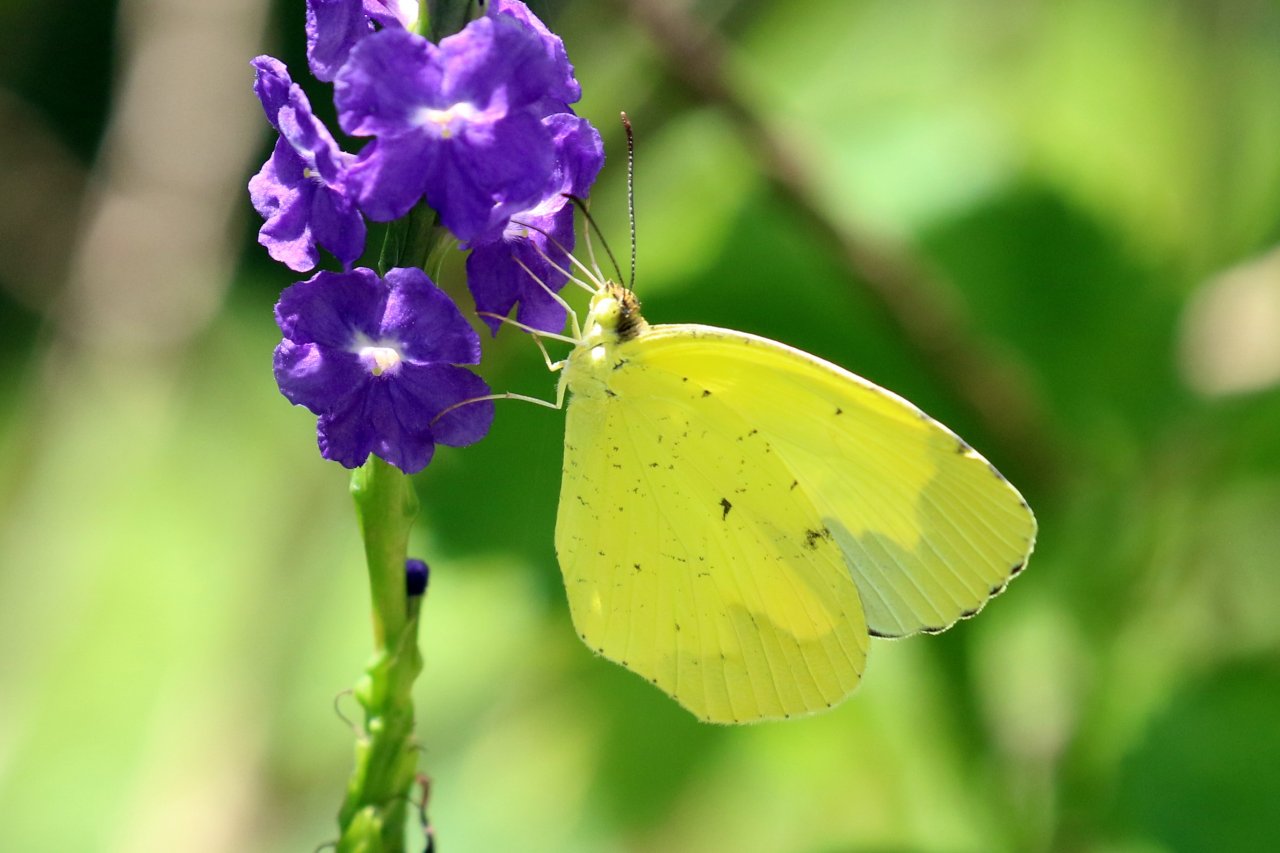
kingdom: Animalia
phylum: Arthropoda
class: Insecta
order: Lepidoptera
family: Pieridae
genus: Eurema
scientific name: Eurema boisduvaliana
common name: Boisduval's Yellow
